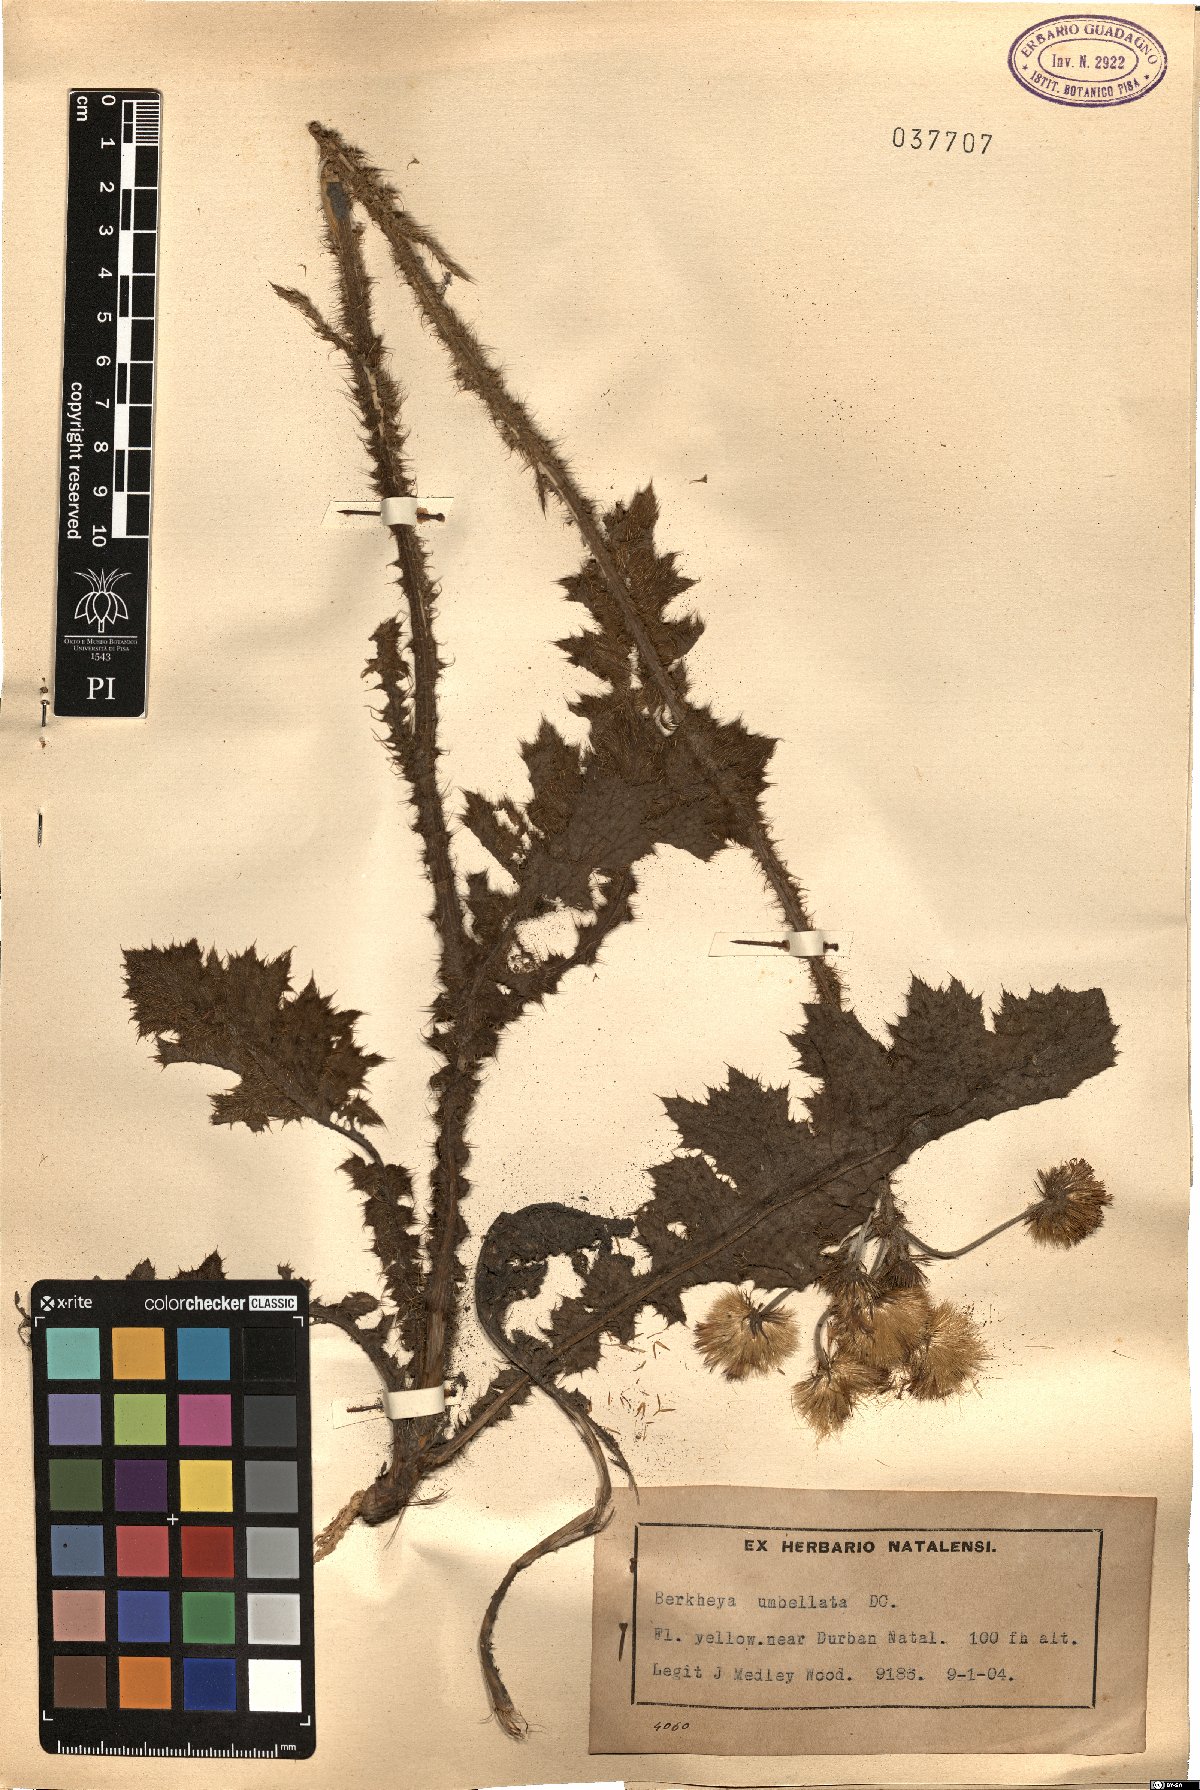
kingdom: Plantae
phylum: Tracheophyta
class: Magnoliopsida
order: Asterales
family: Asteraceae
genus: Berkheya
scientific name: Berkheya umbellata
